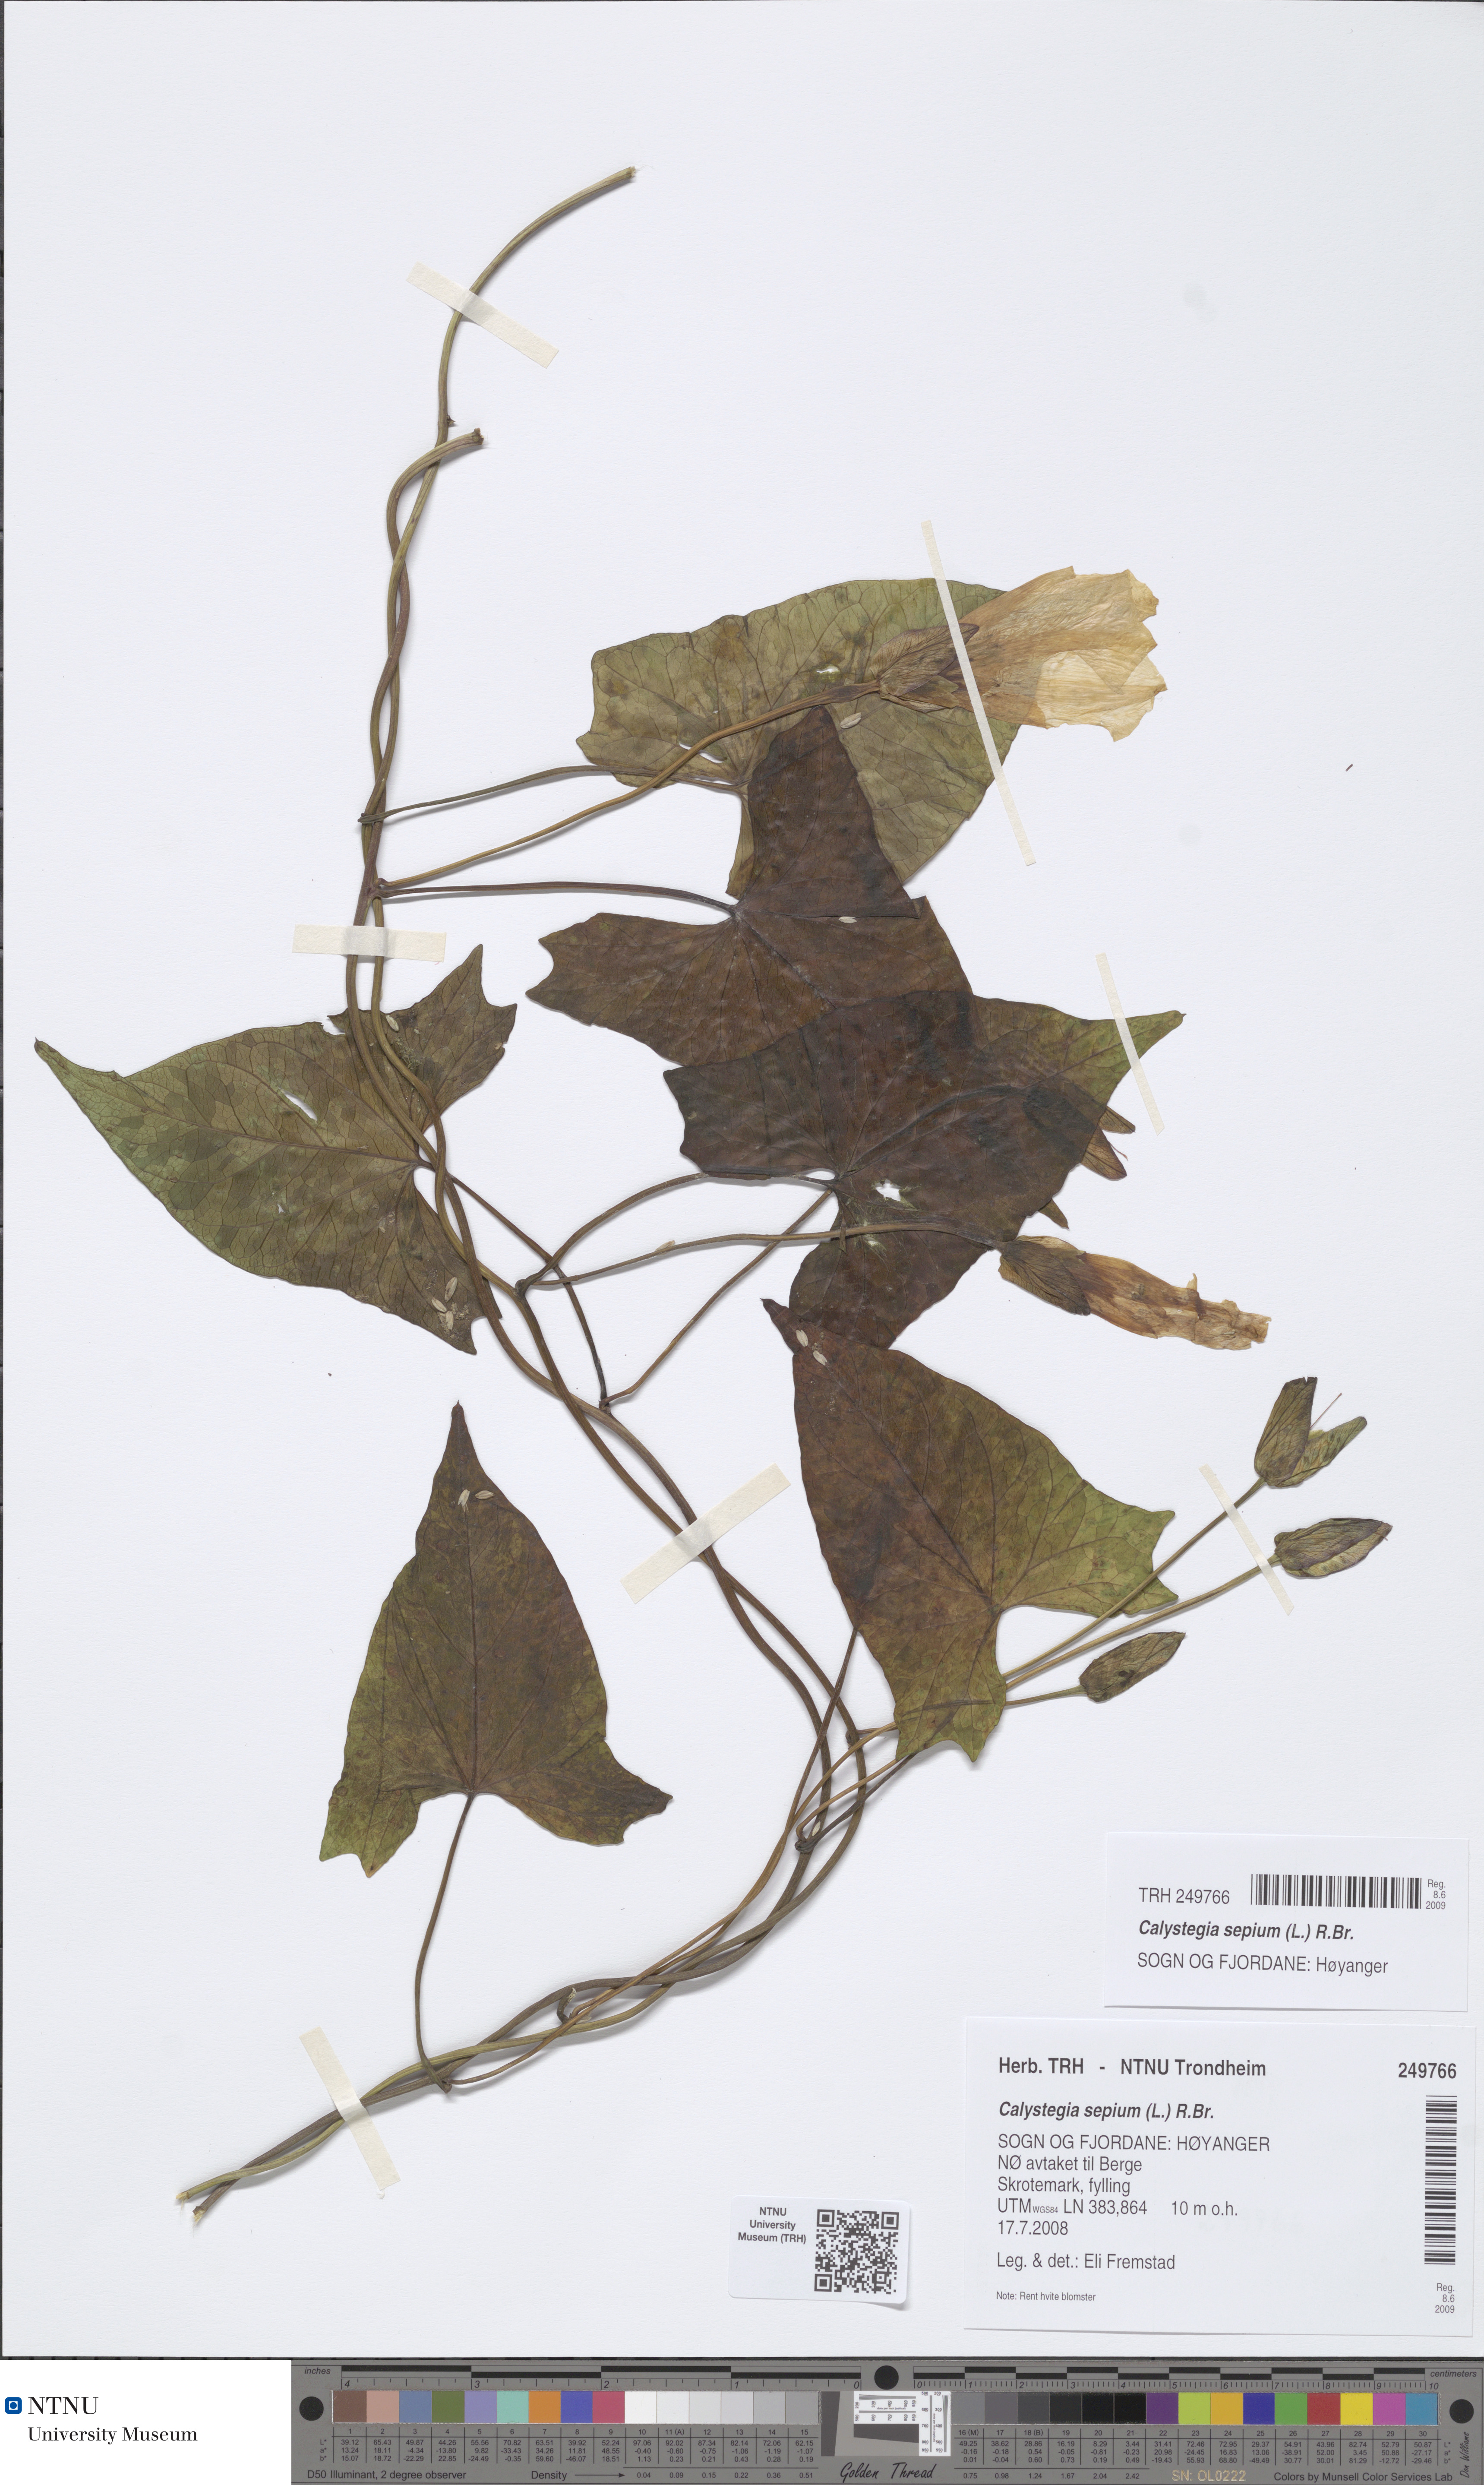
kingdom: Plantae
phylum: Tracheophyta
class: Magnoliopsida
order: Solanales
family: Convolvulaceae
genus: Calystegia
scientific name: Calystegia sepium
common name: Hedge bindweed
